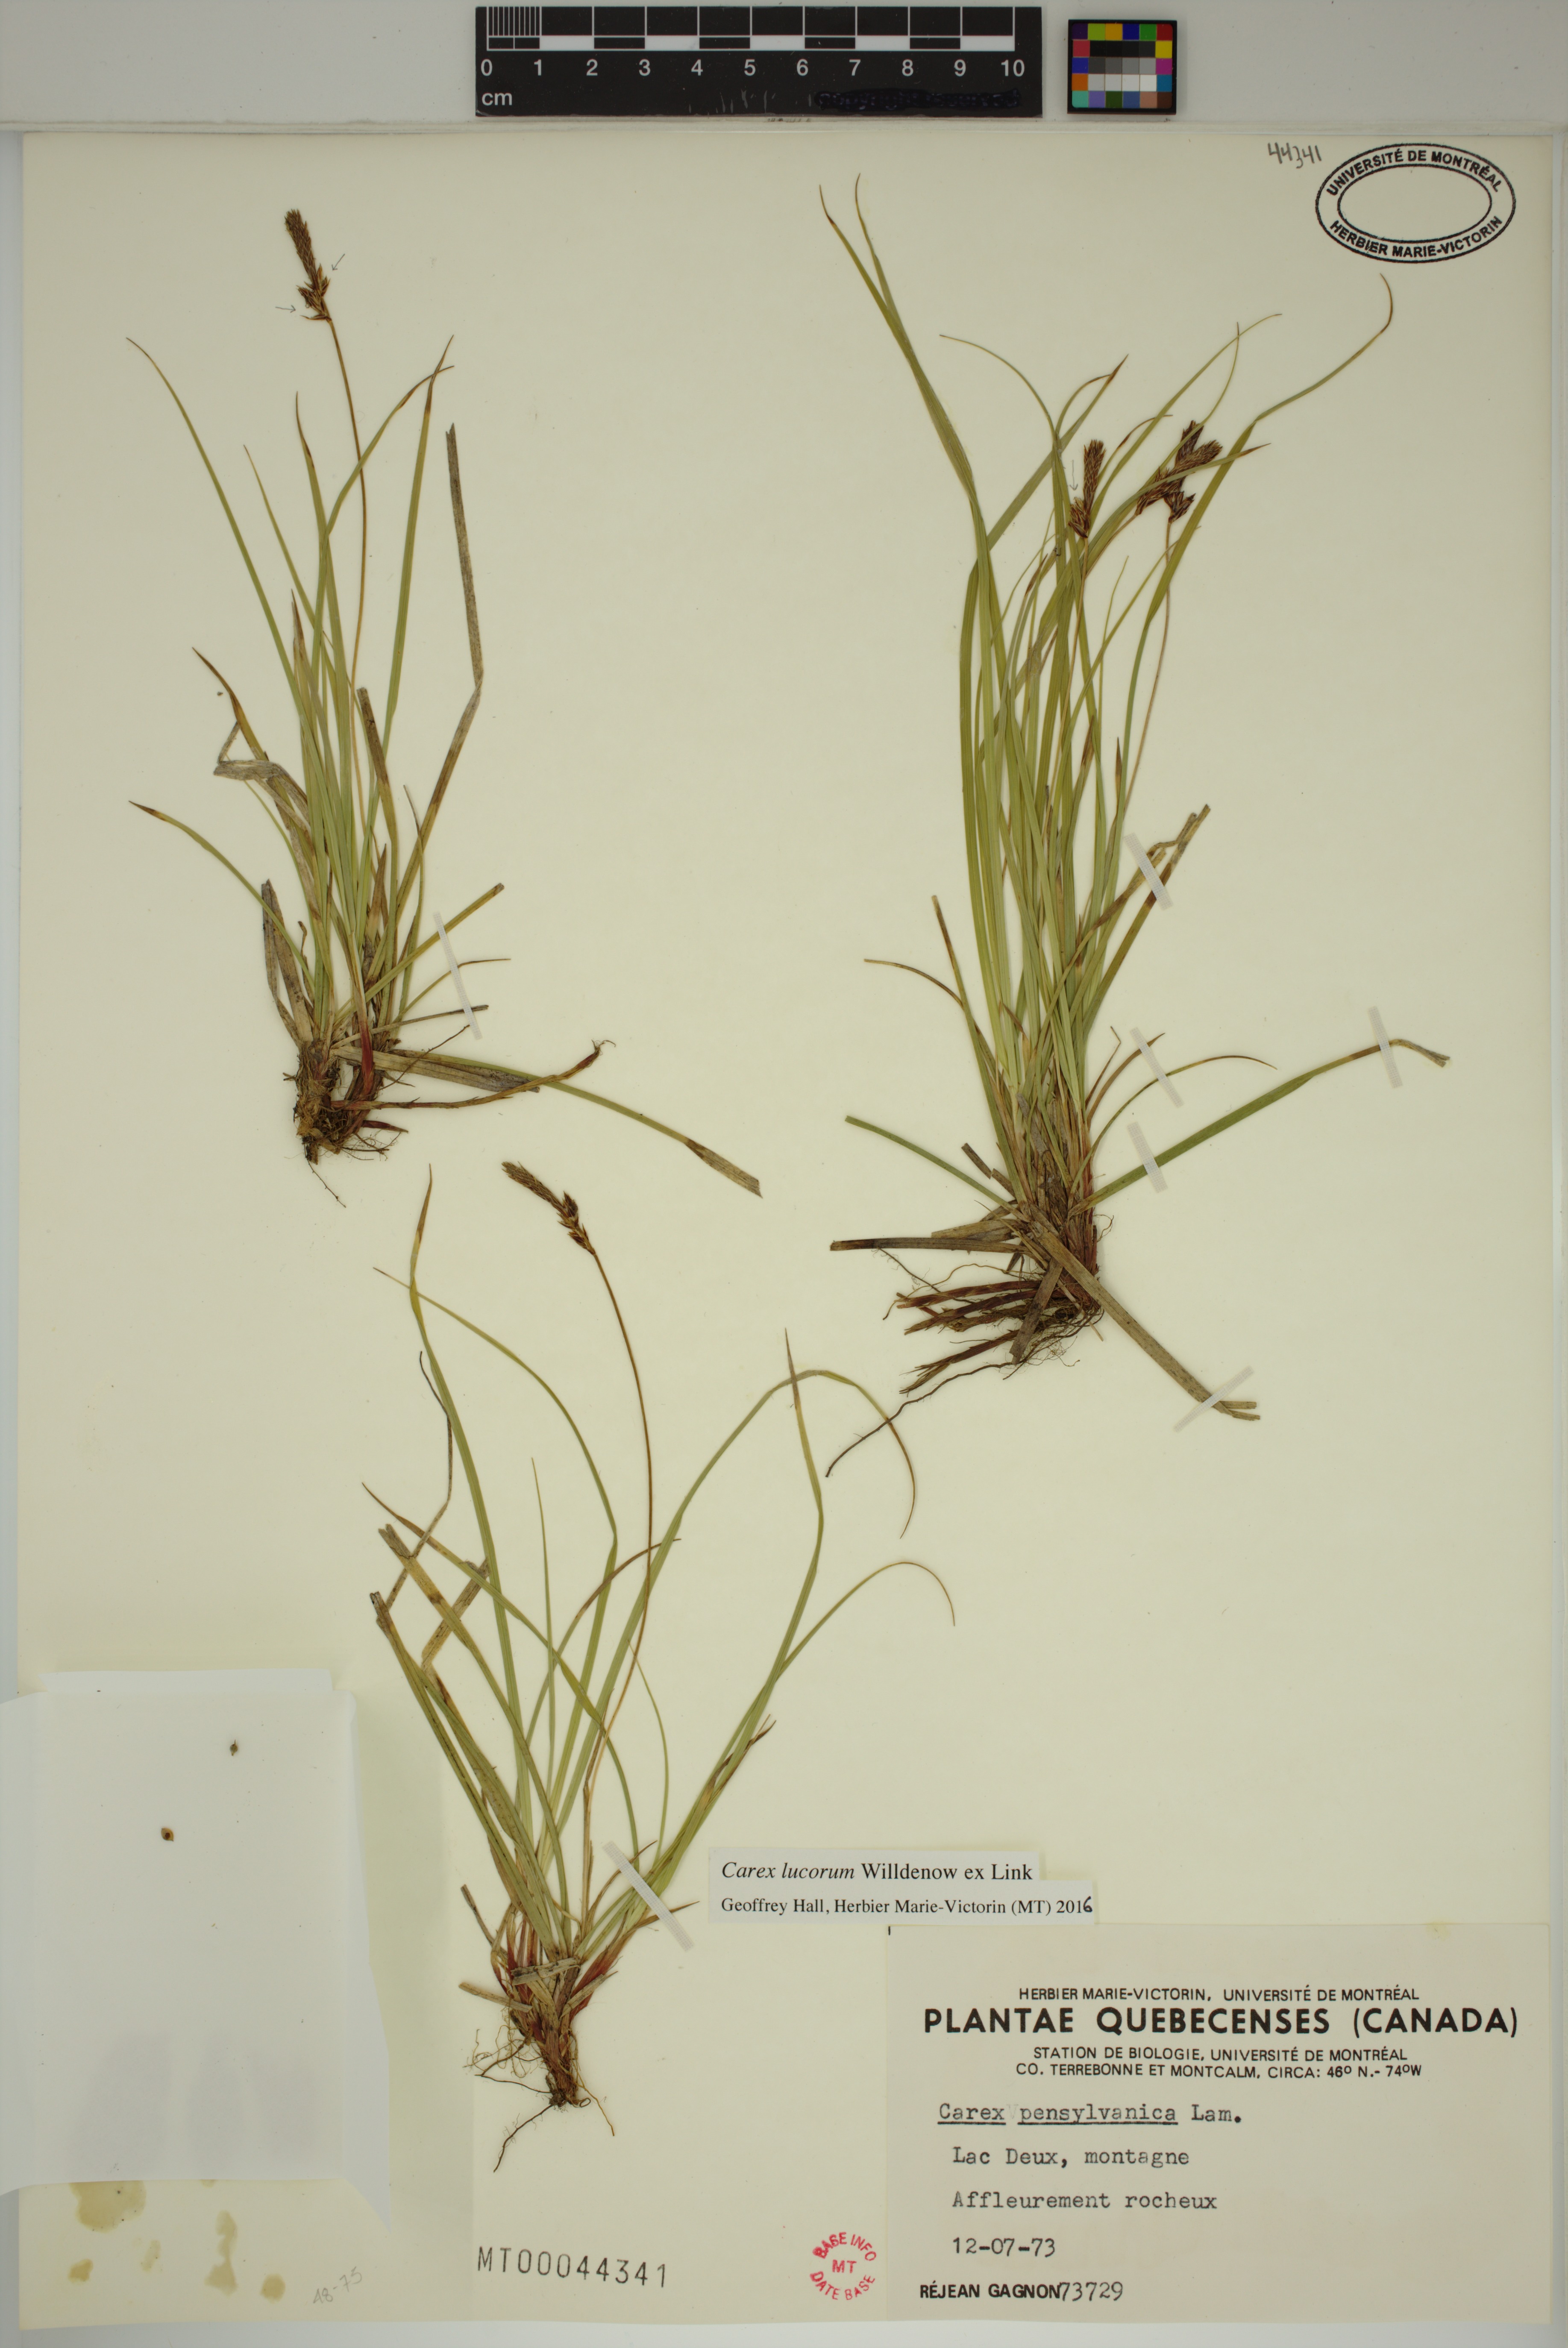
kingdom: Plantae
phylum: Tracheophyta
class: Liliopsida
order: Poales
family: Cyperaceae
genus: Carex
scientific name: Carex lucorum
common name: Blue ridge sedge
